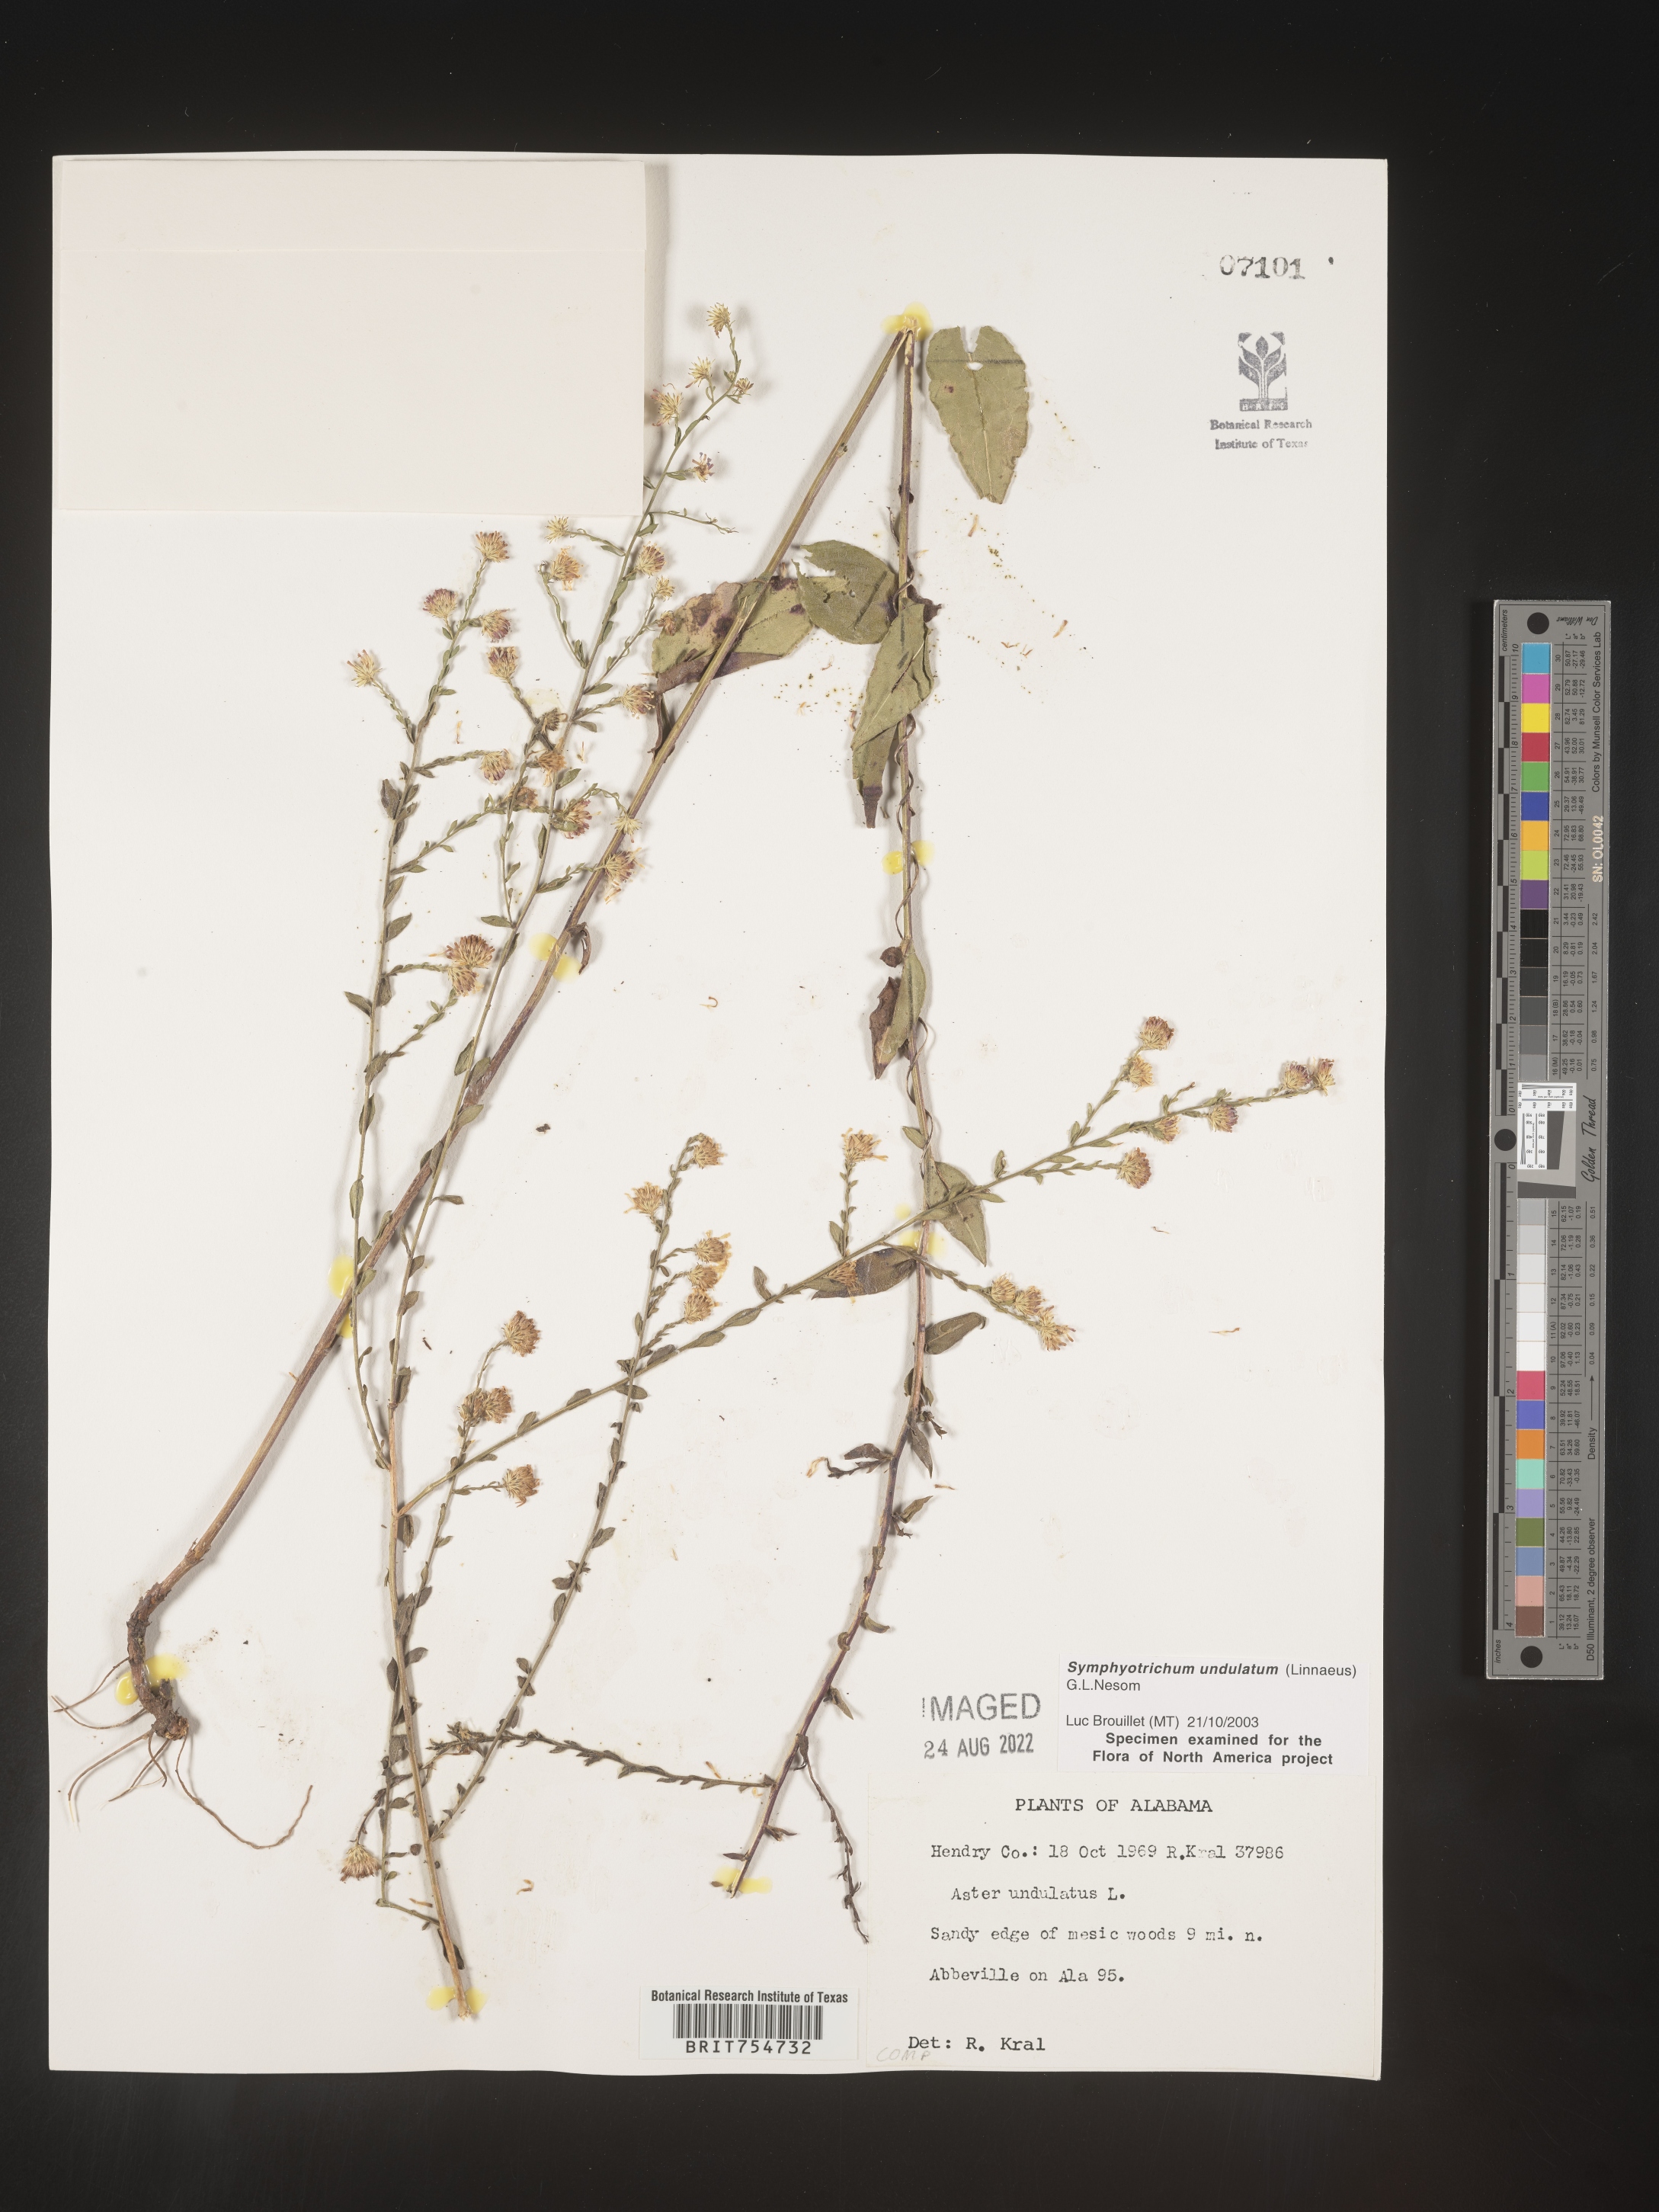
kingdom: Plantae
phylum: Tracheophyta
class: Magnoliopsida
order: Asterales
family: Asteraceae
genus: Symphyotrichum
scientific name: Symphyotrichum undulatum
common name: Clasping heart-leaf aster
